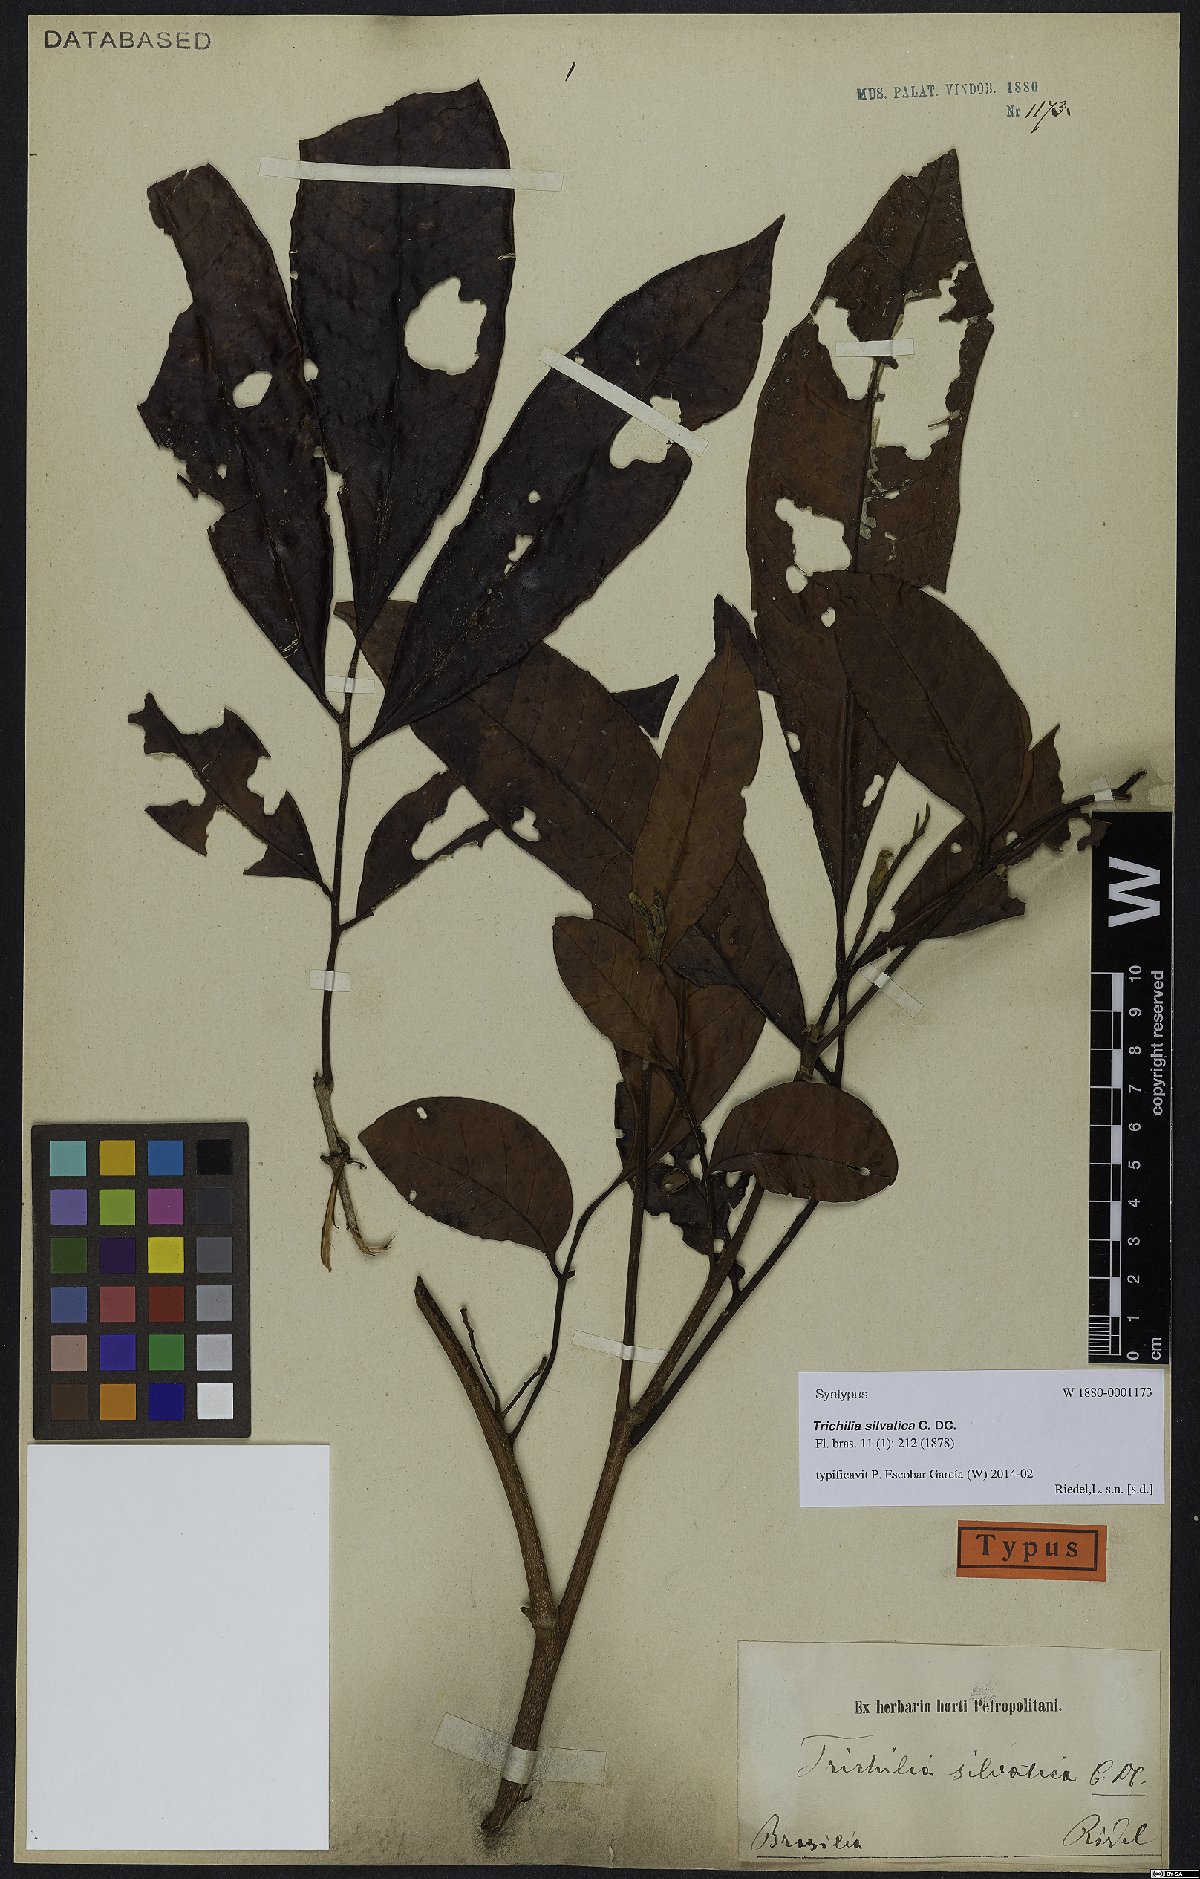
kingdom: Plantae
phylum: Tracheophyta
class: Magnoliopsida
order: Sapindales
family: Meliaceae
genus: Trichilia
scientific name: Trichilia silvatica
